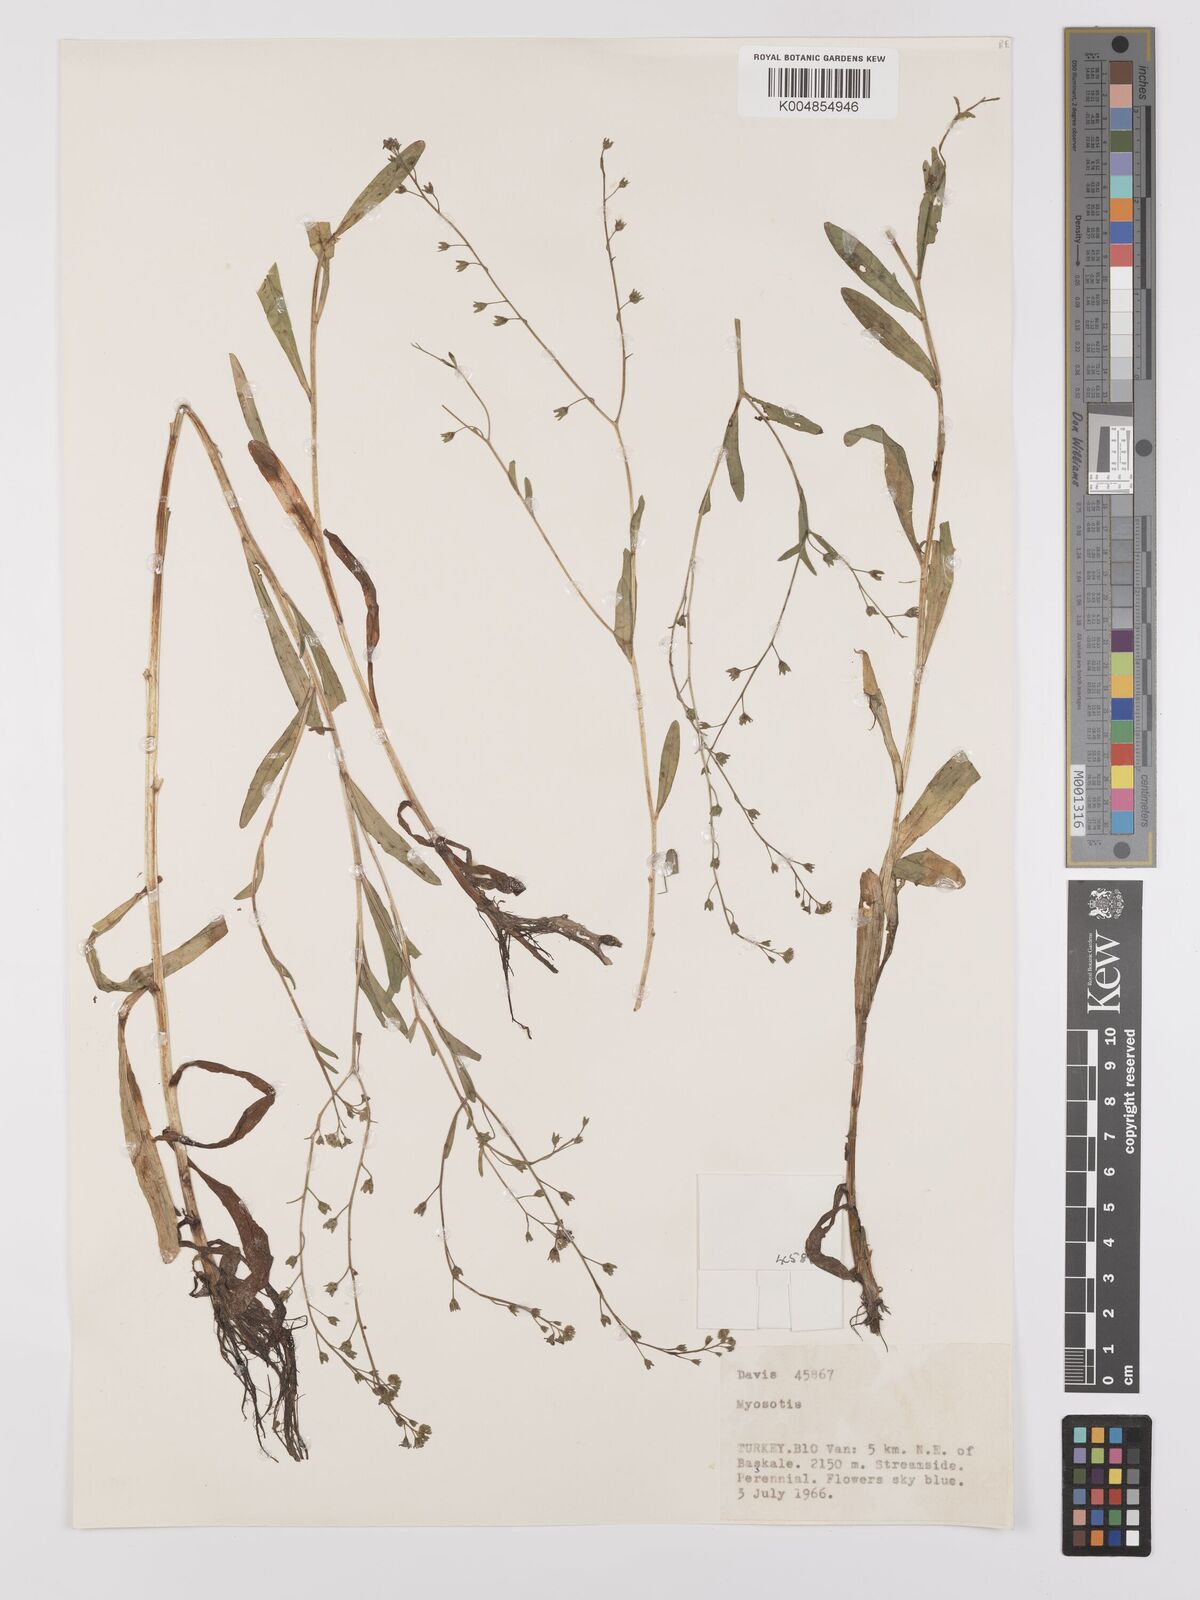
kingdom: Plantae
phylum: Tracheophyta
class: Magnoliopsida
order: Boraginales
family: Boraginaceae
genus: Myosotis
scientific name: Myosotis
